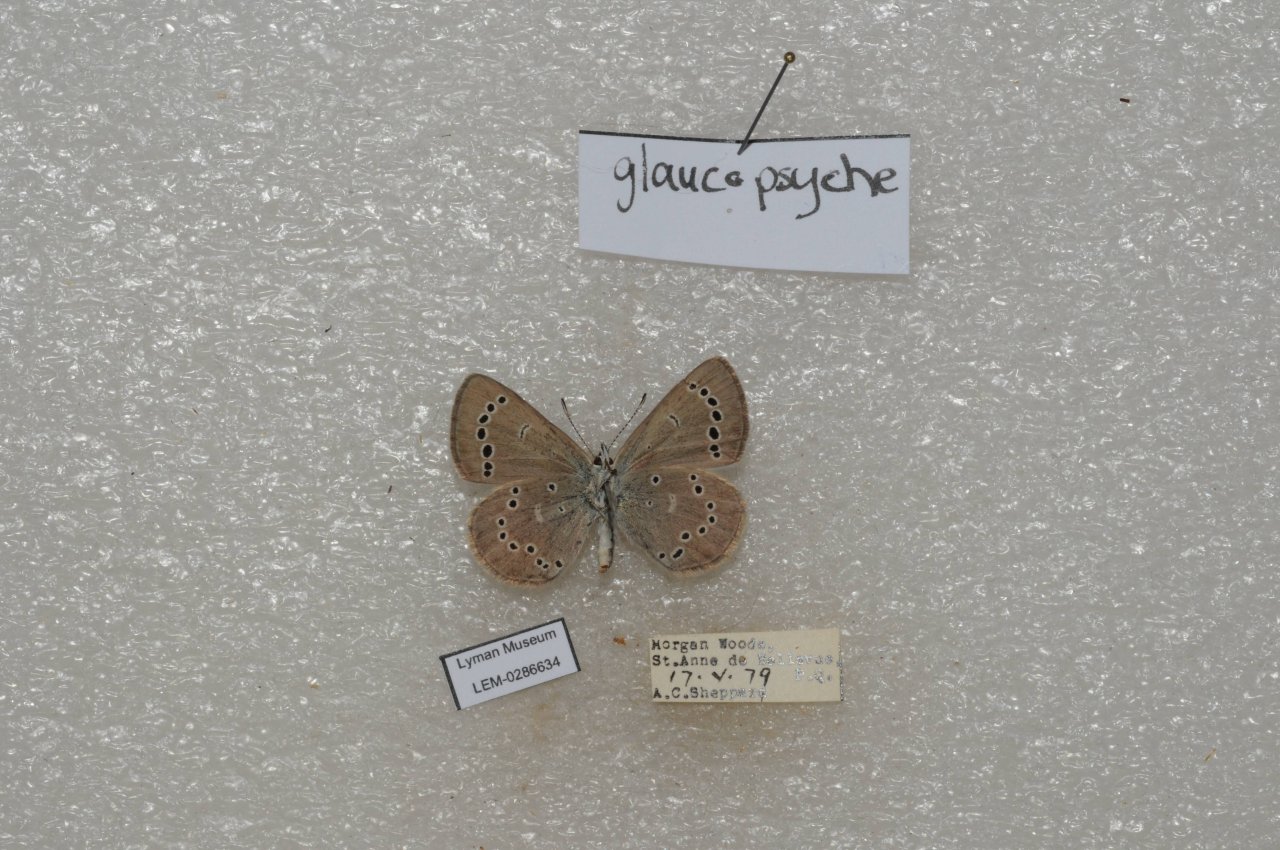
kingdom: Animalia
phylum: Arthropoda
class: Insecta
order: Lepidoptera
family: Lycaenidae
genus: Glaucopsyche
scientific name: Glaucopsyche lygdamus
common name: Silvery Blue
